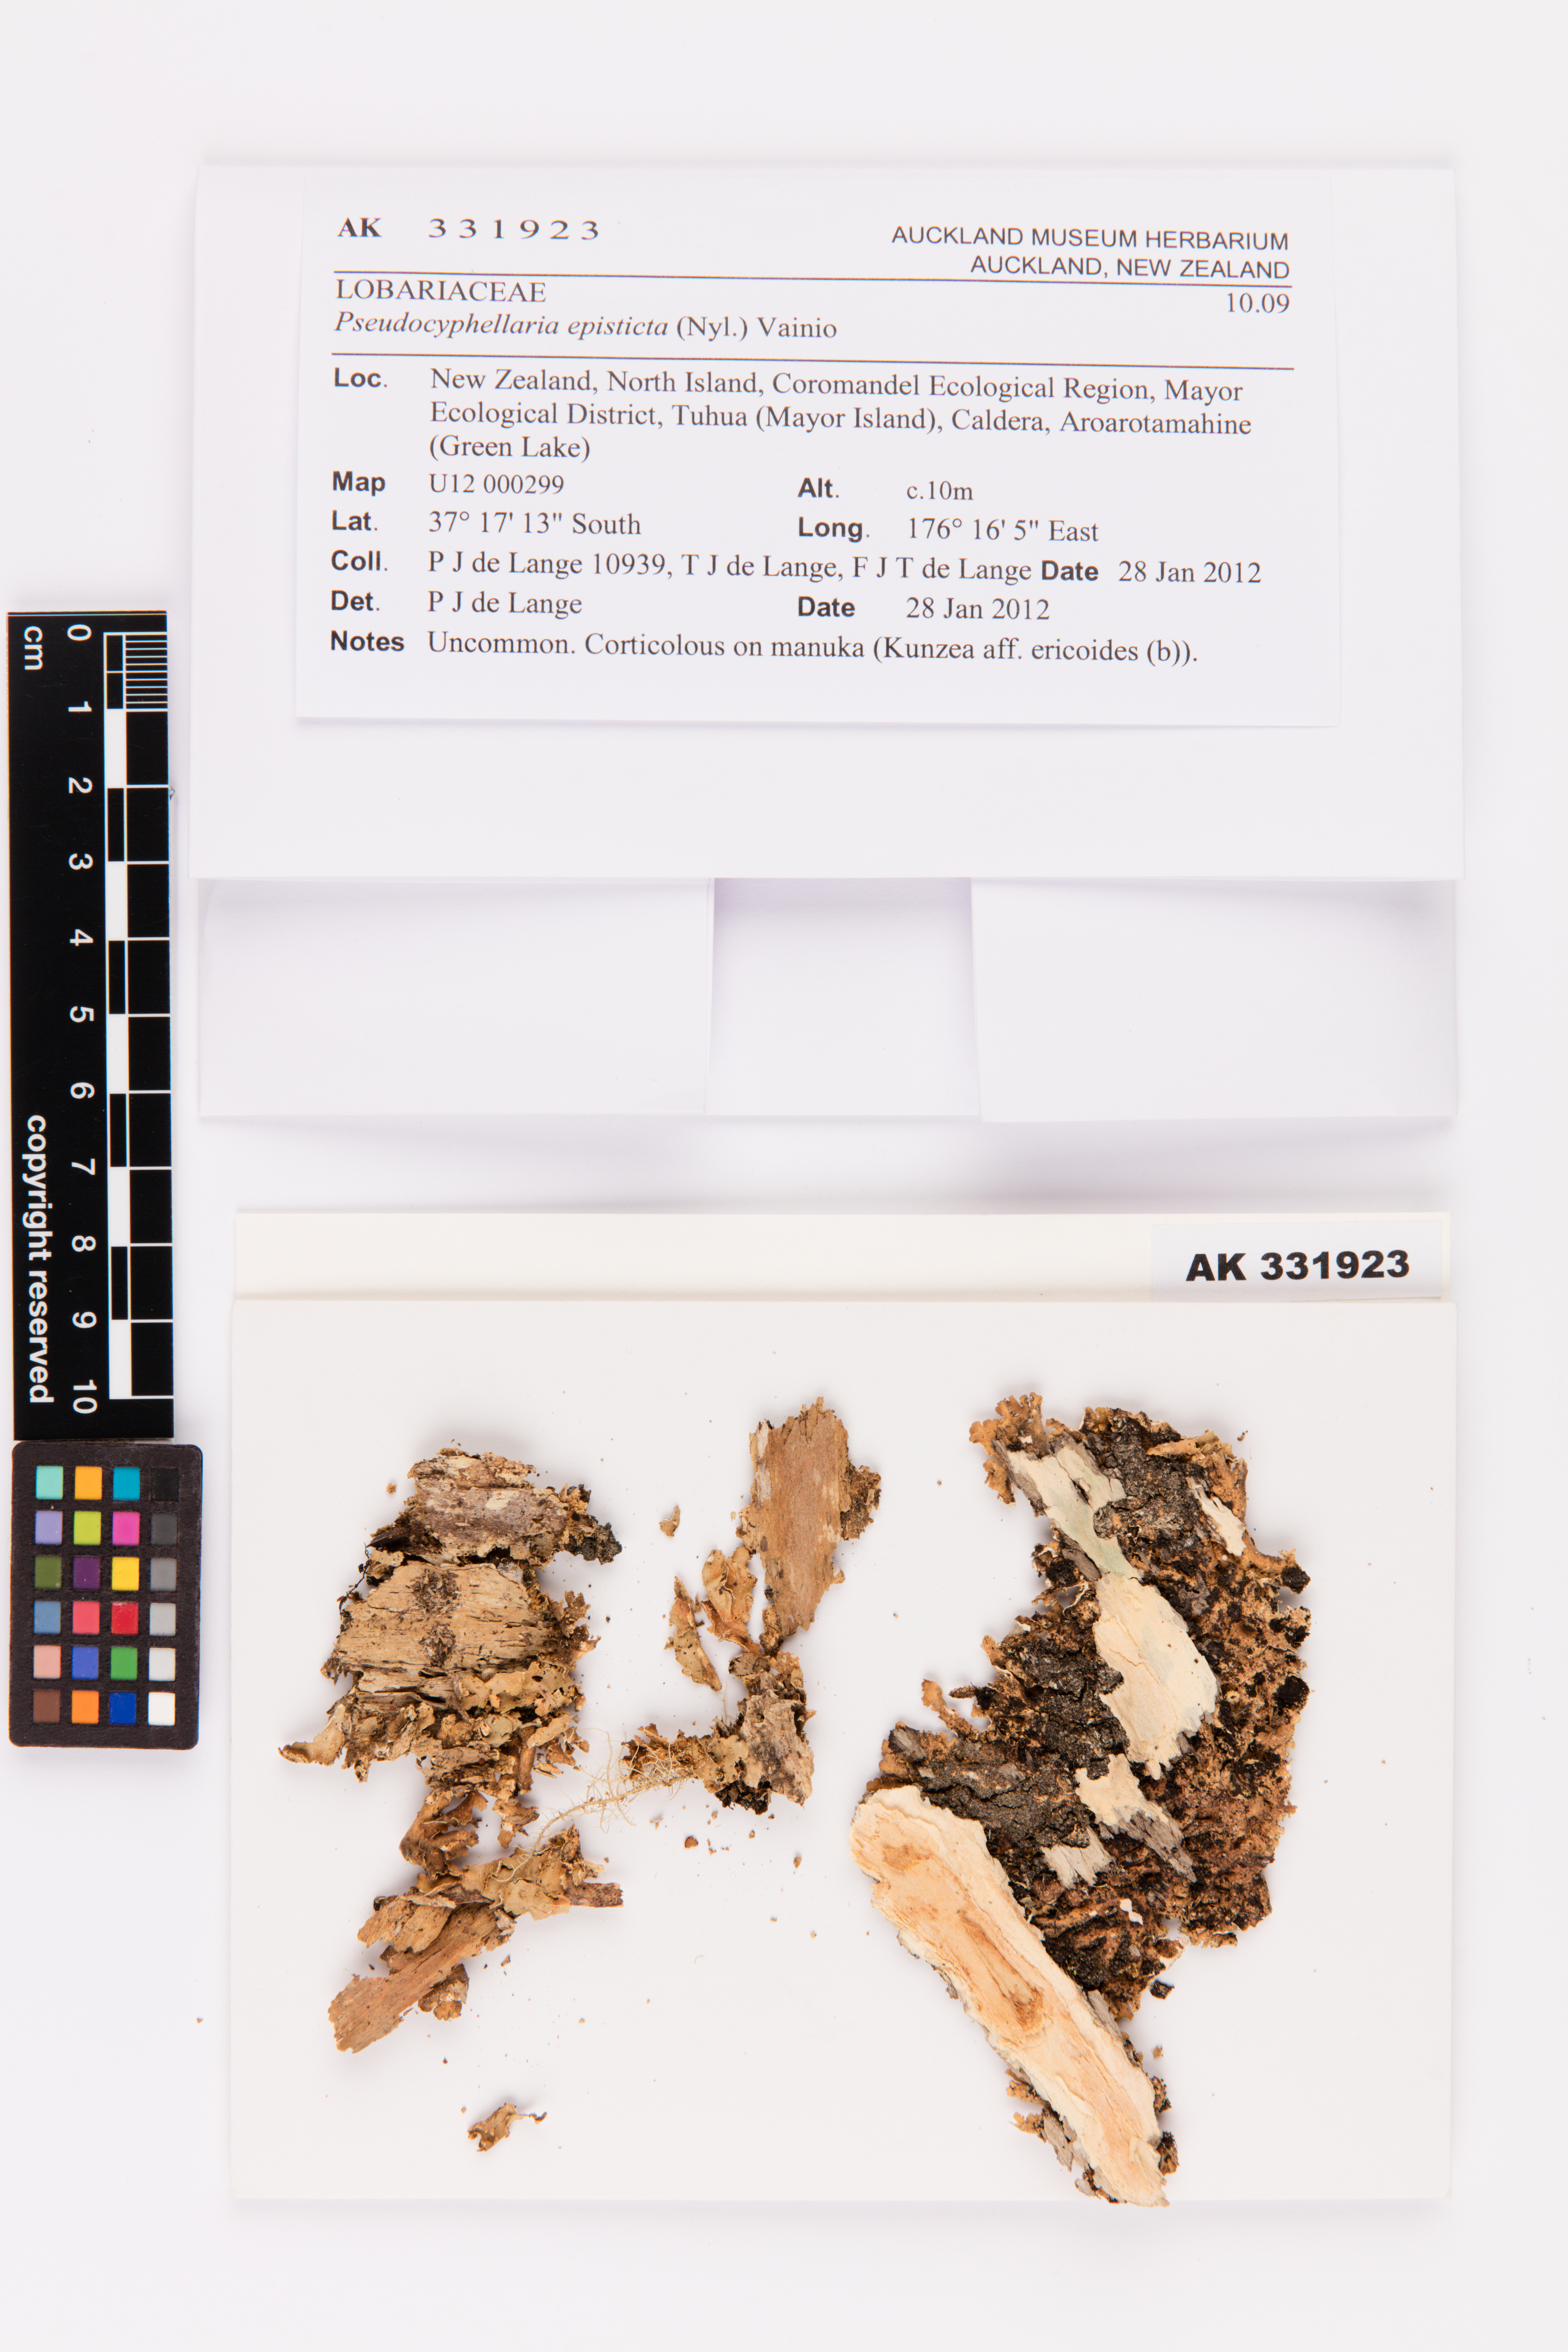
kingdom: Fungi
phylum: Ascomycota
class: Lecanoromycetes
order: Peltigerales
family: Lobariaceae
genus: Pseudocyphellaria
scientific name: Pseudocyphellaria episticta
